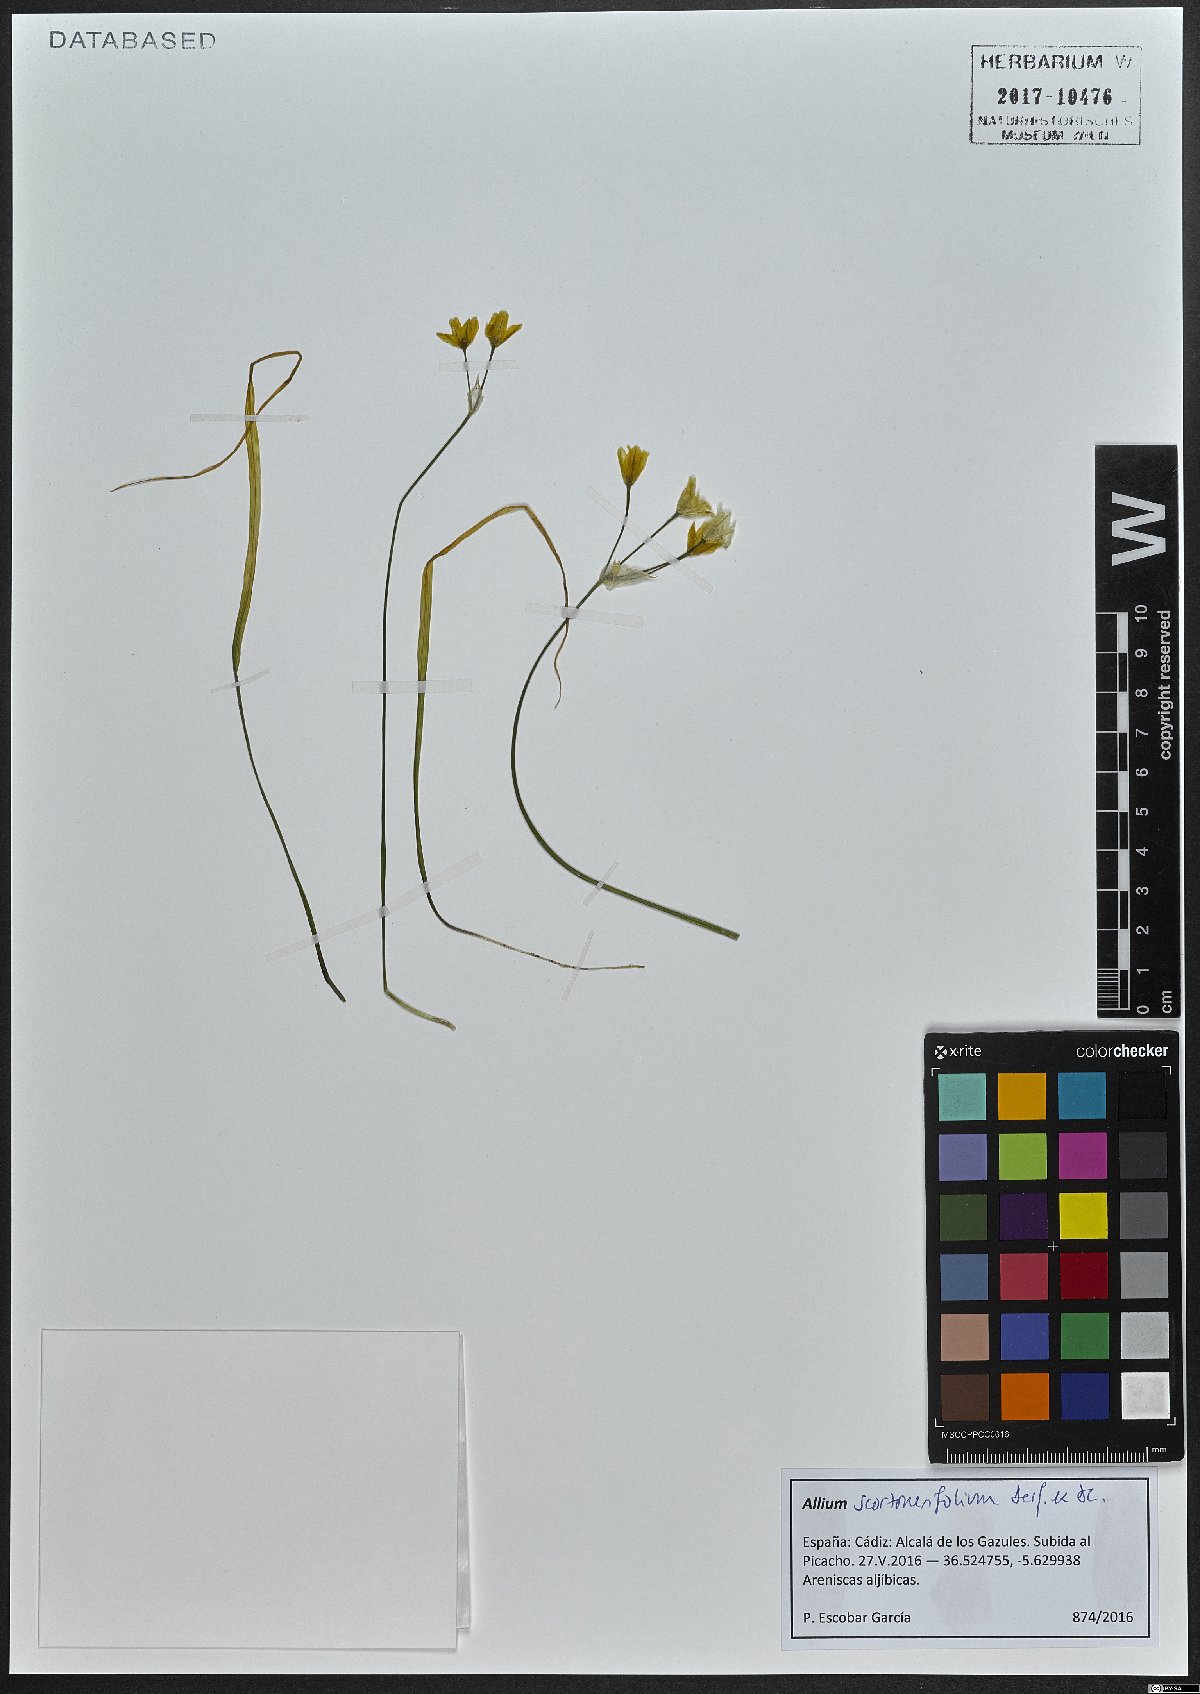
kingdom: Plantae
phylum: Tracheophyta
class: Liliopsida
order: Asparagales
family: Amaryllidaceae
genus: Allium
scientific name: Allium scorzonerifolium
